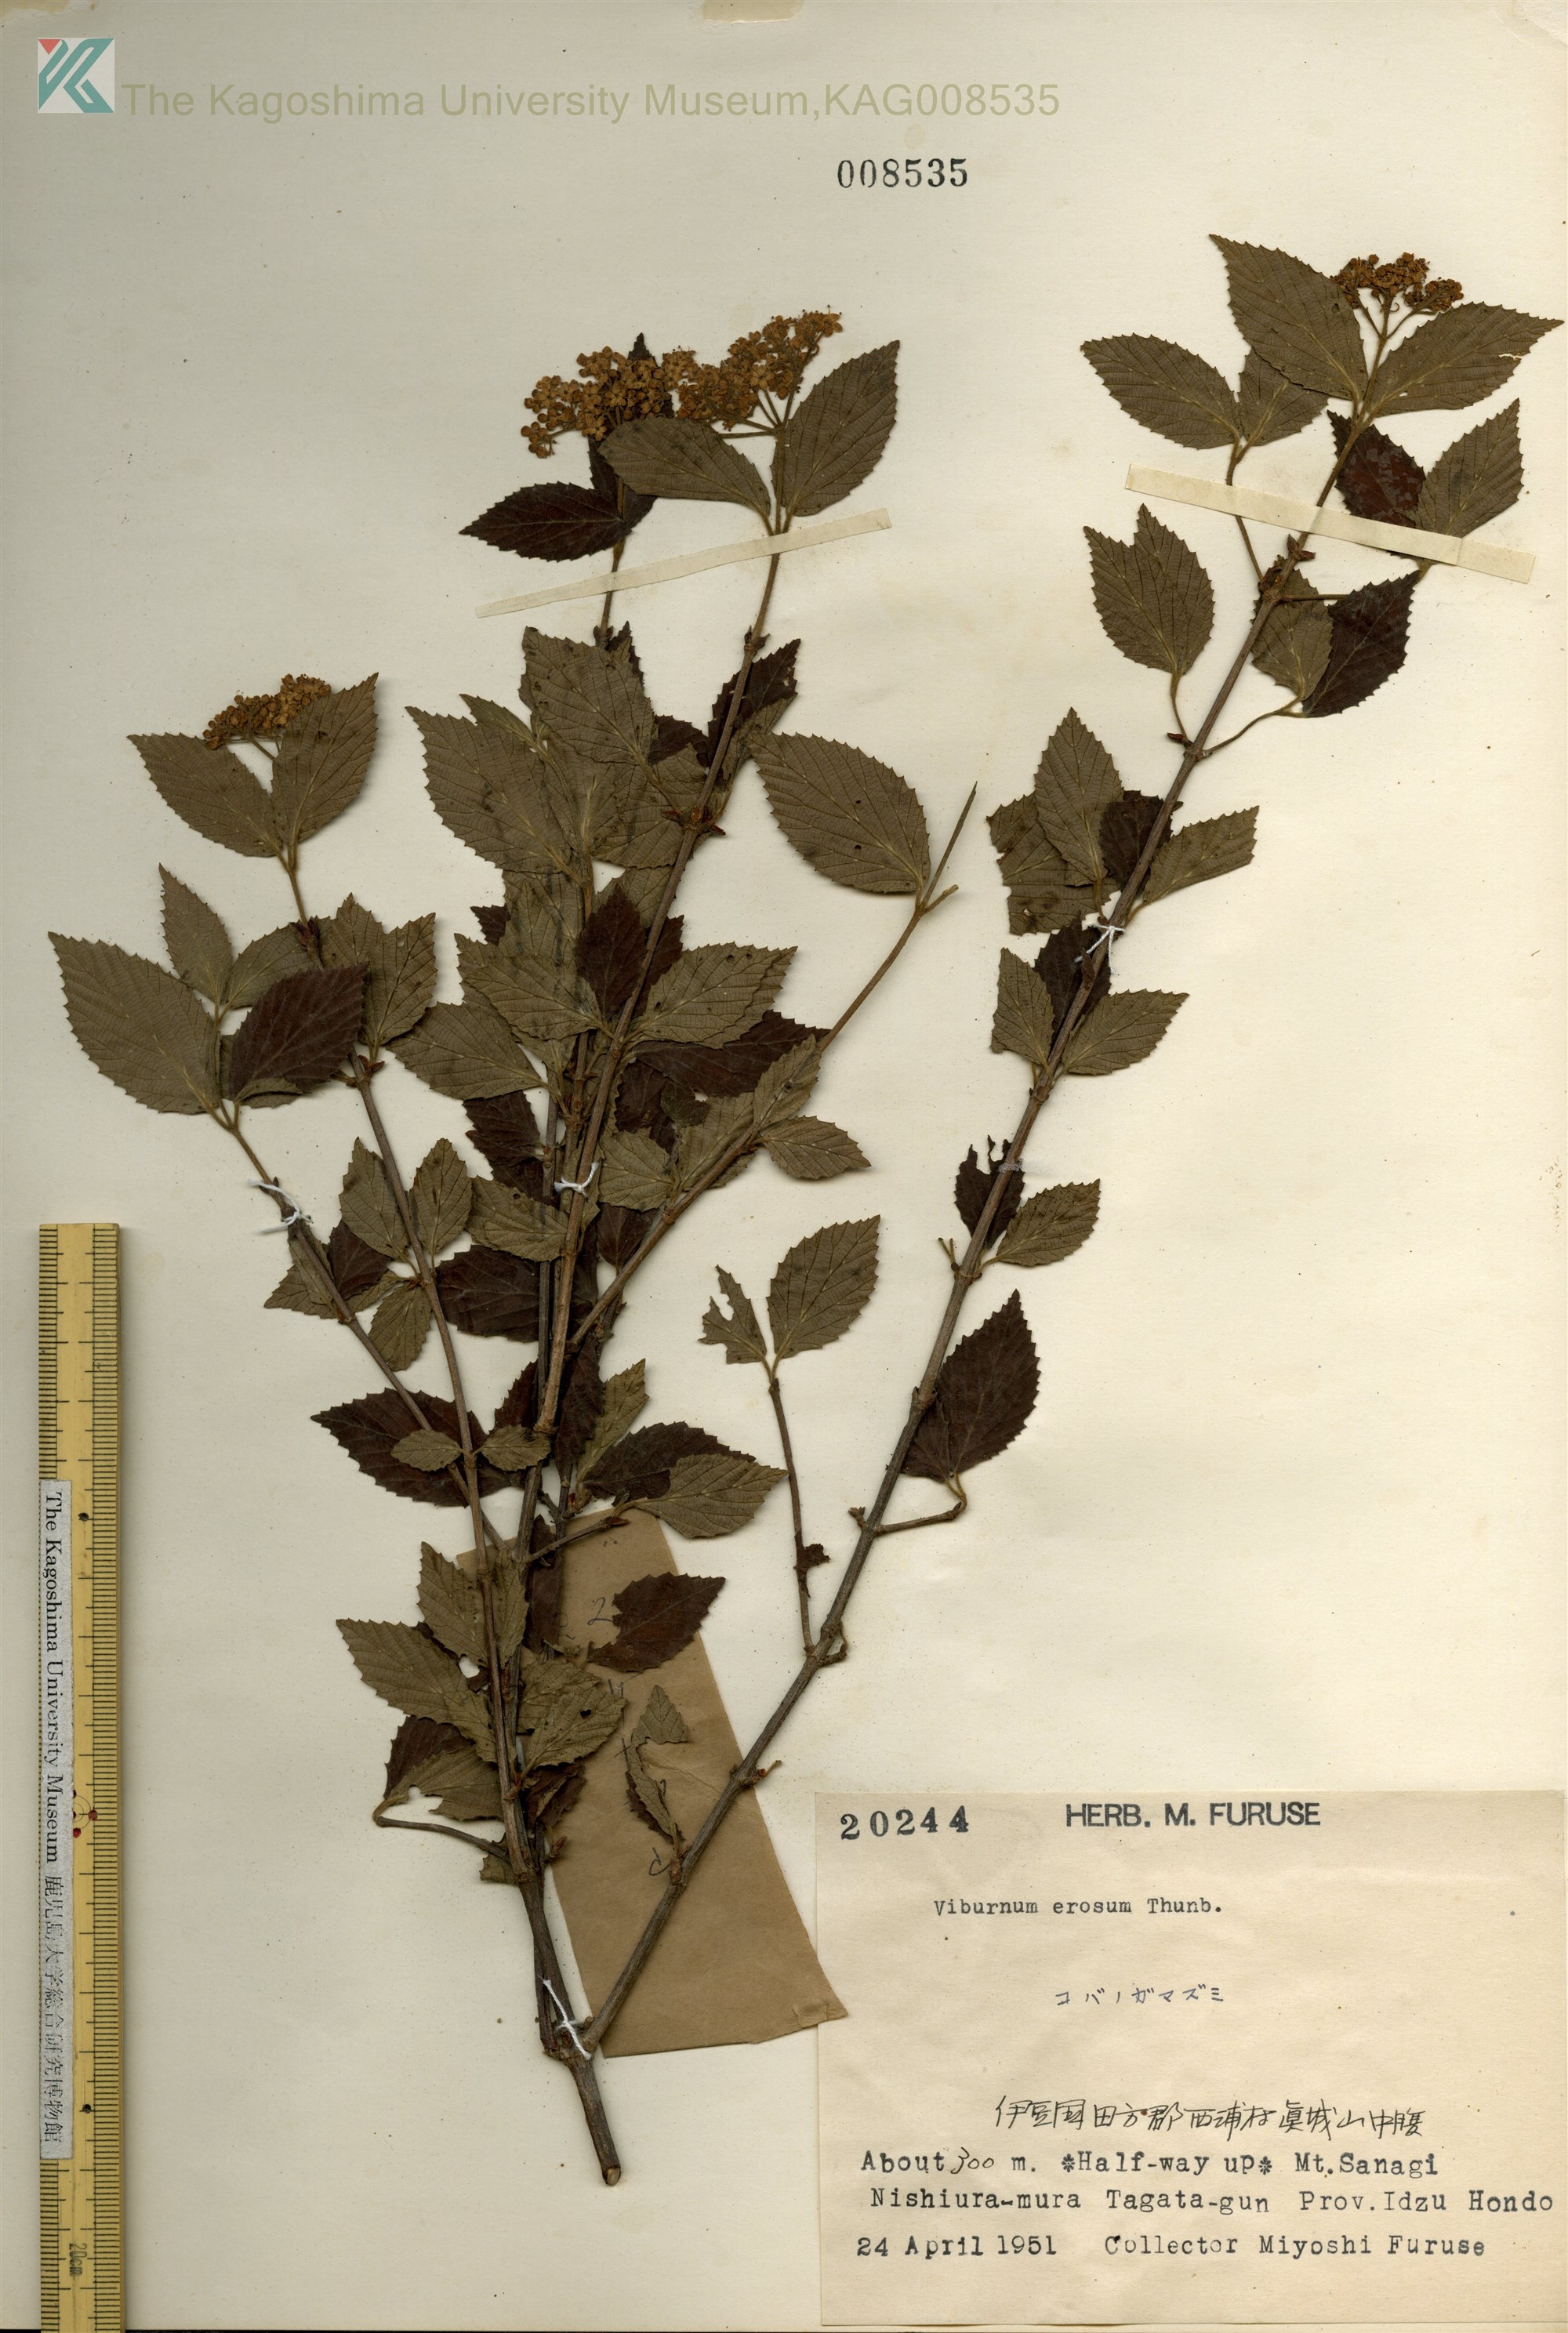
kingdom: Plantae
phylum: Tracheophyta
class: Magnoliopsida
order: Dipsacales
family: Viburnaceae
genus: Viburnum
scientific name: Viburnum erosum
